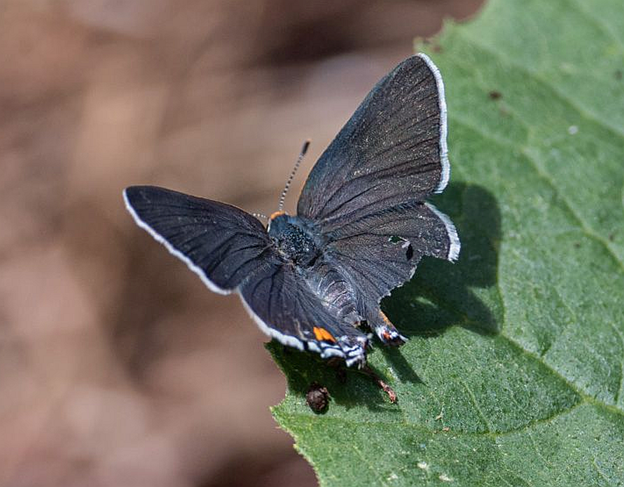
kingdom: Animalia
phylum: Arthropoda
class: Insecta
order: Lepidoptera
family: Lycaenidae
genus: Strymon
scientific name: Strymon melinus
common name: Gray Hairstreak
